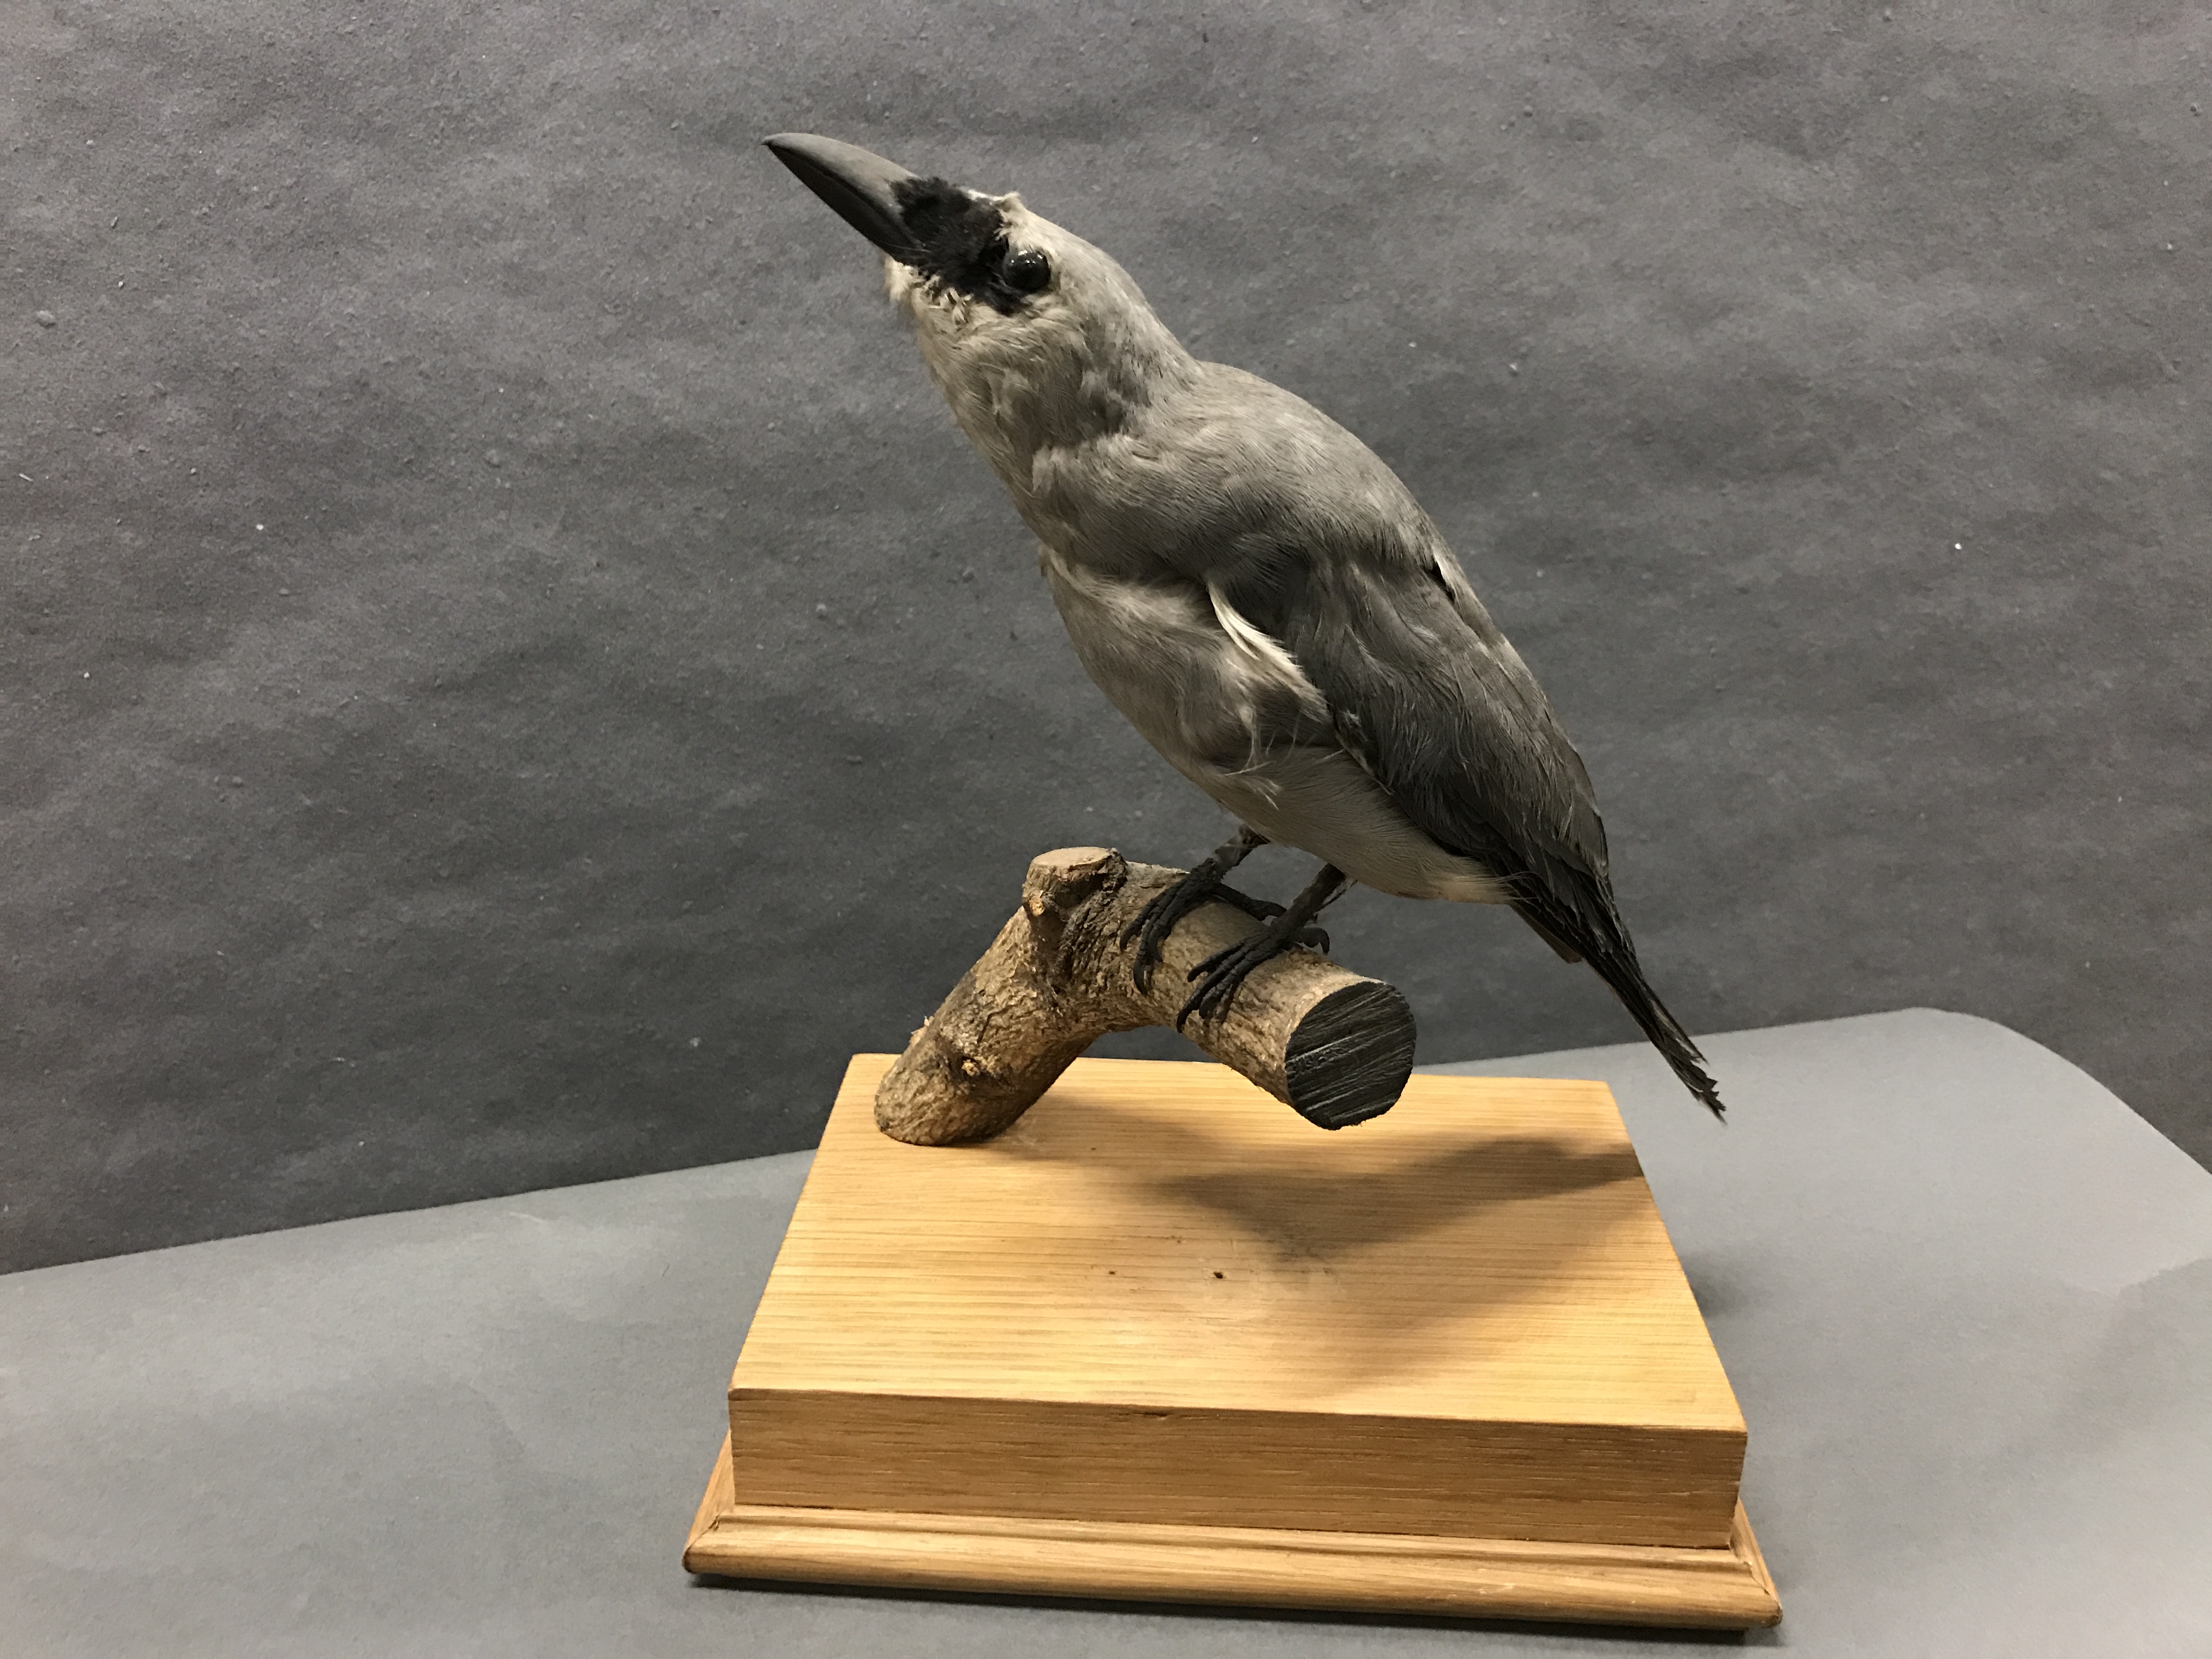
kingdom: Animalia
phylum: Chordata
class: Aves
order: Passeriformes
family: Campephagidae
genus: Coracina
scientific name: Coracina papuensis
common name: White-bellied cuckooshrike
